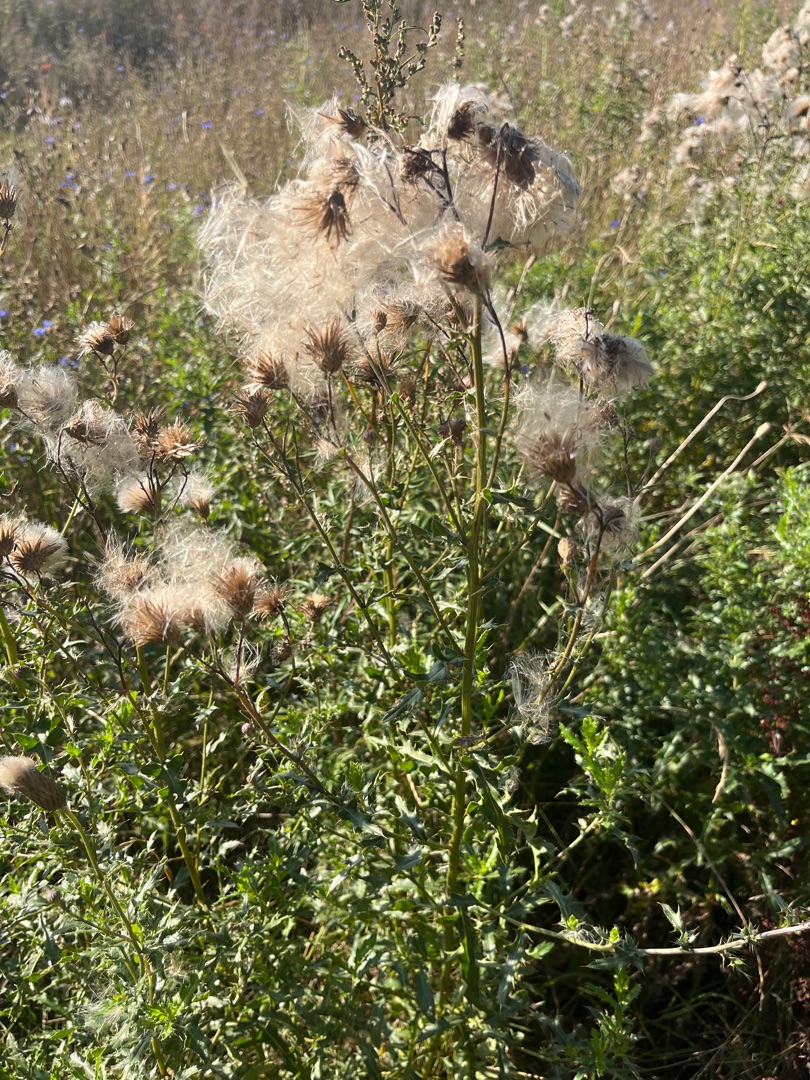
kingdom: Plantae
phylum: Tracheophyta
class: Magnoliopsida
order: Asterales
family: Asteraceae
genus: Cirsium
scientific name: Cirsium arvense
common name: Ager-tidsel
